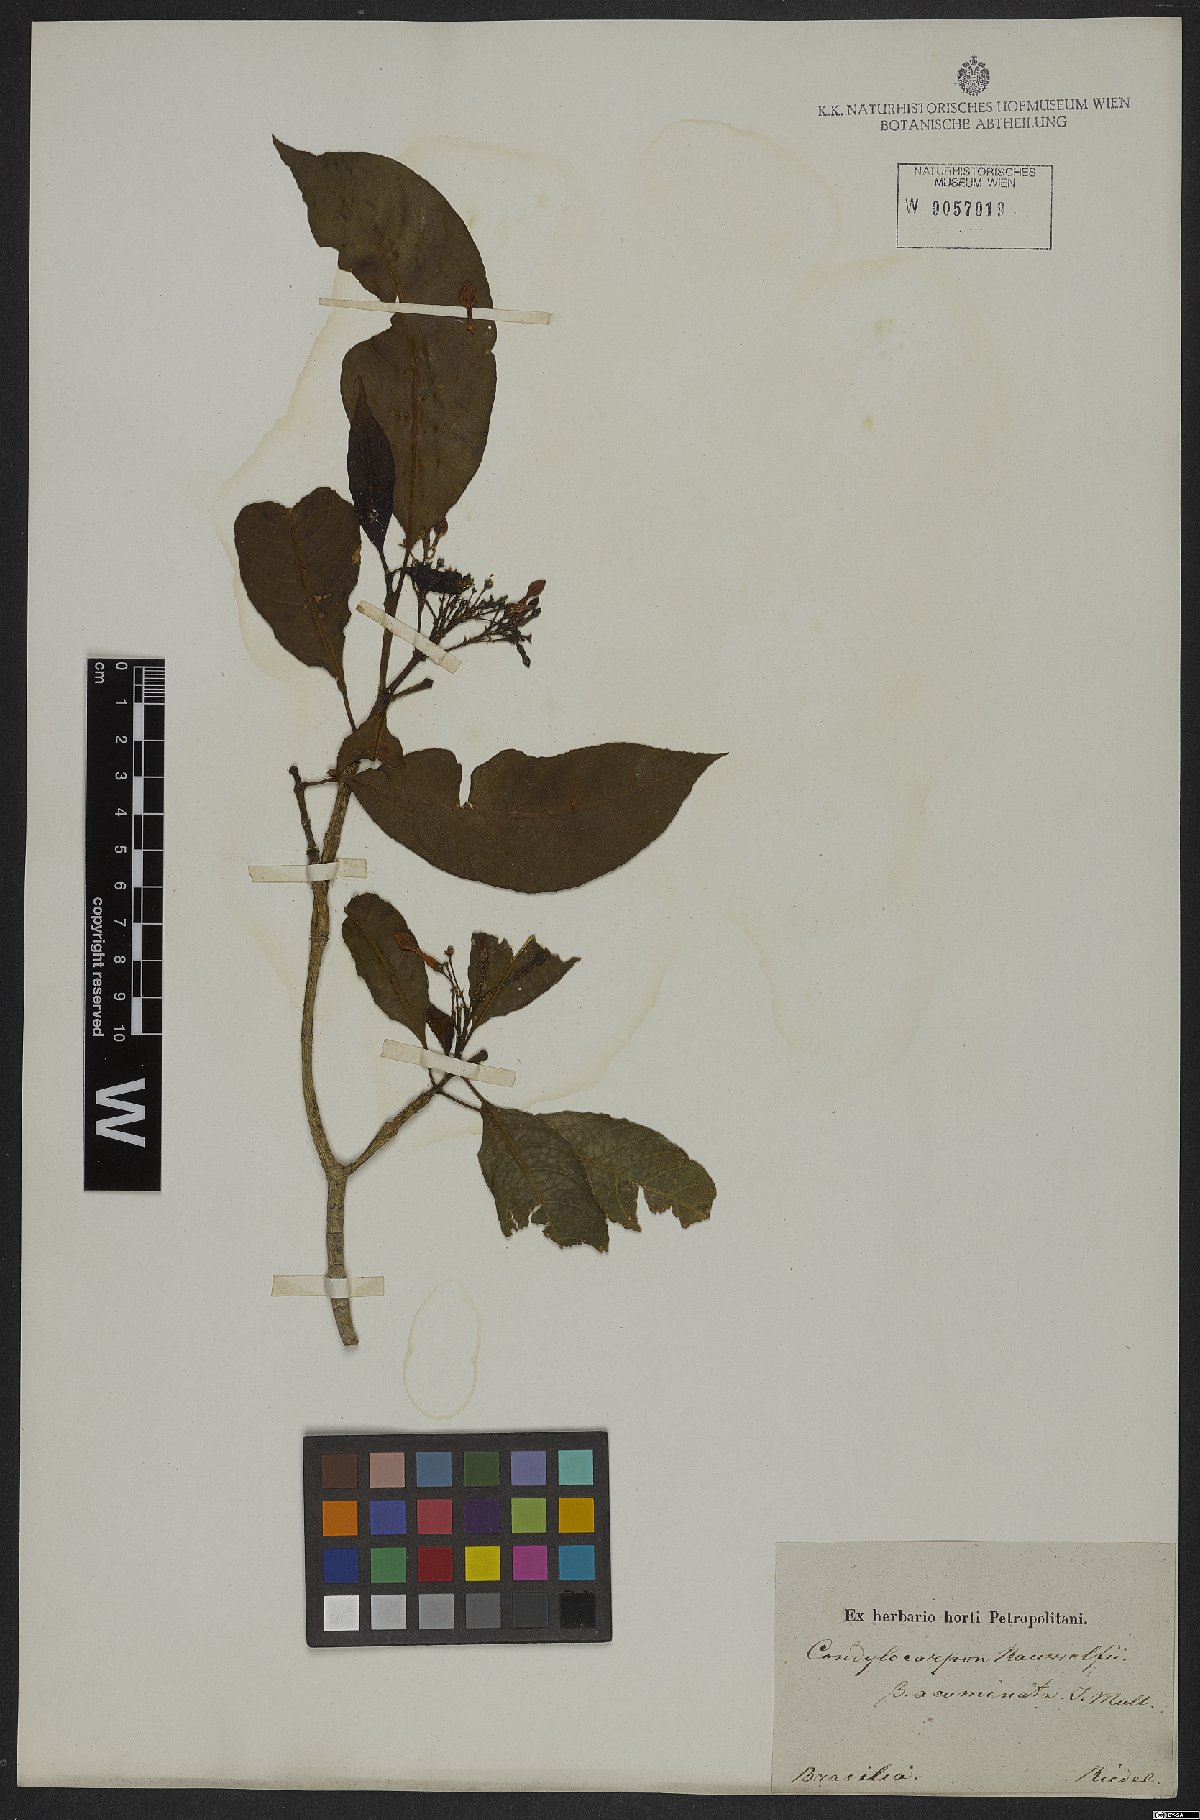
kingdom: Plantae
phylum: Tracheophyta
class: Magnoliopsida
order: Gentianales
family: Apocynaceae
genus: Condylocarpon
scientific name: Condylocarpon isthmicum
